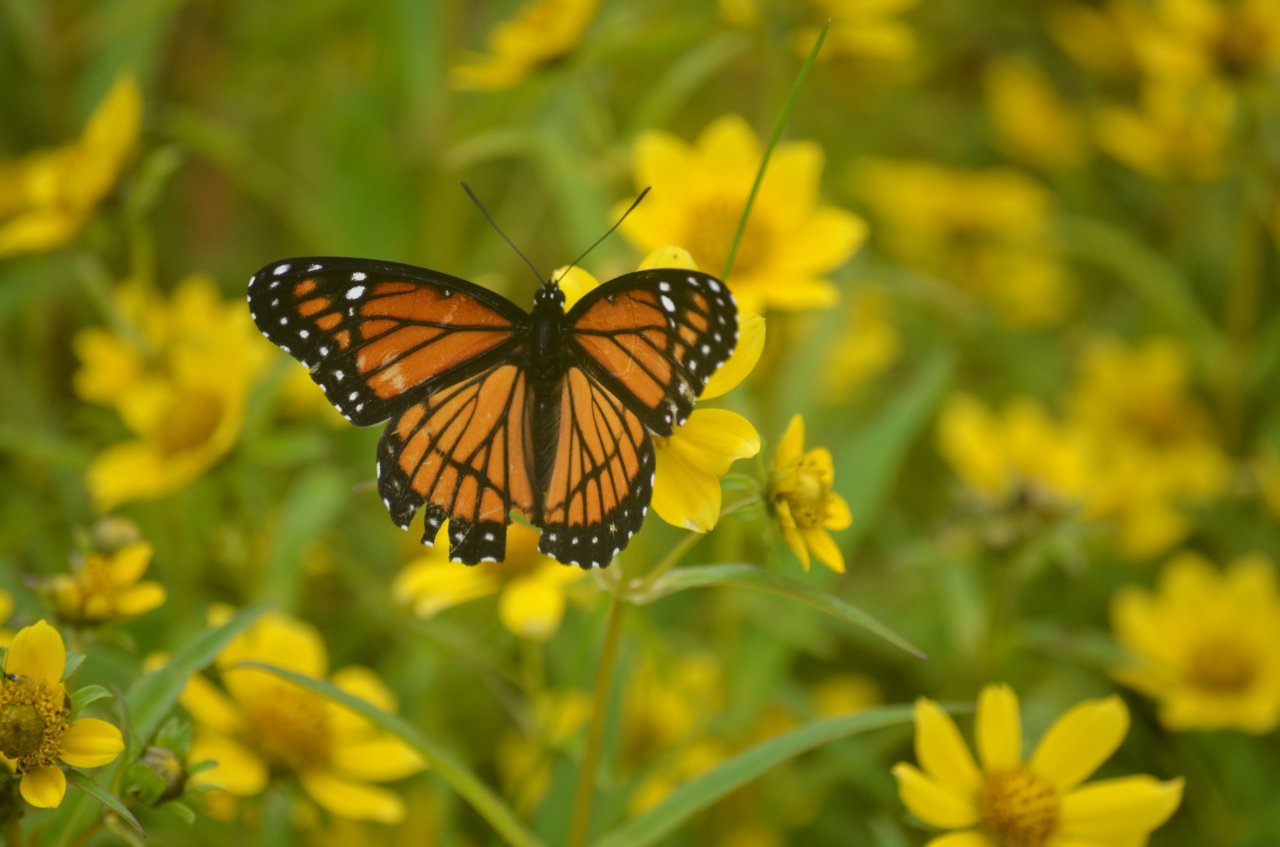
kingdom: Animalia
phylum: Arthropoda
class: Insecta
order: Lepidoptera
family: Nymphalidae
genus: Limenitis
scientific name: Limenitis archippus
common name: Viceroy
